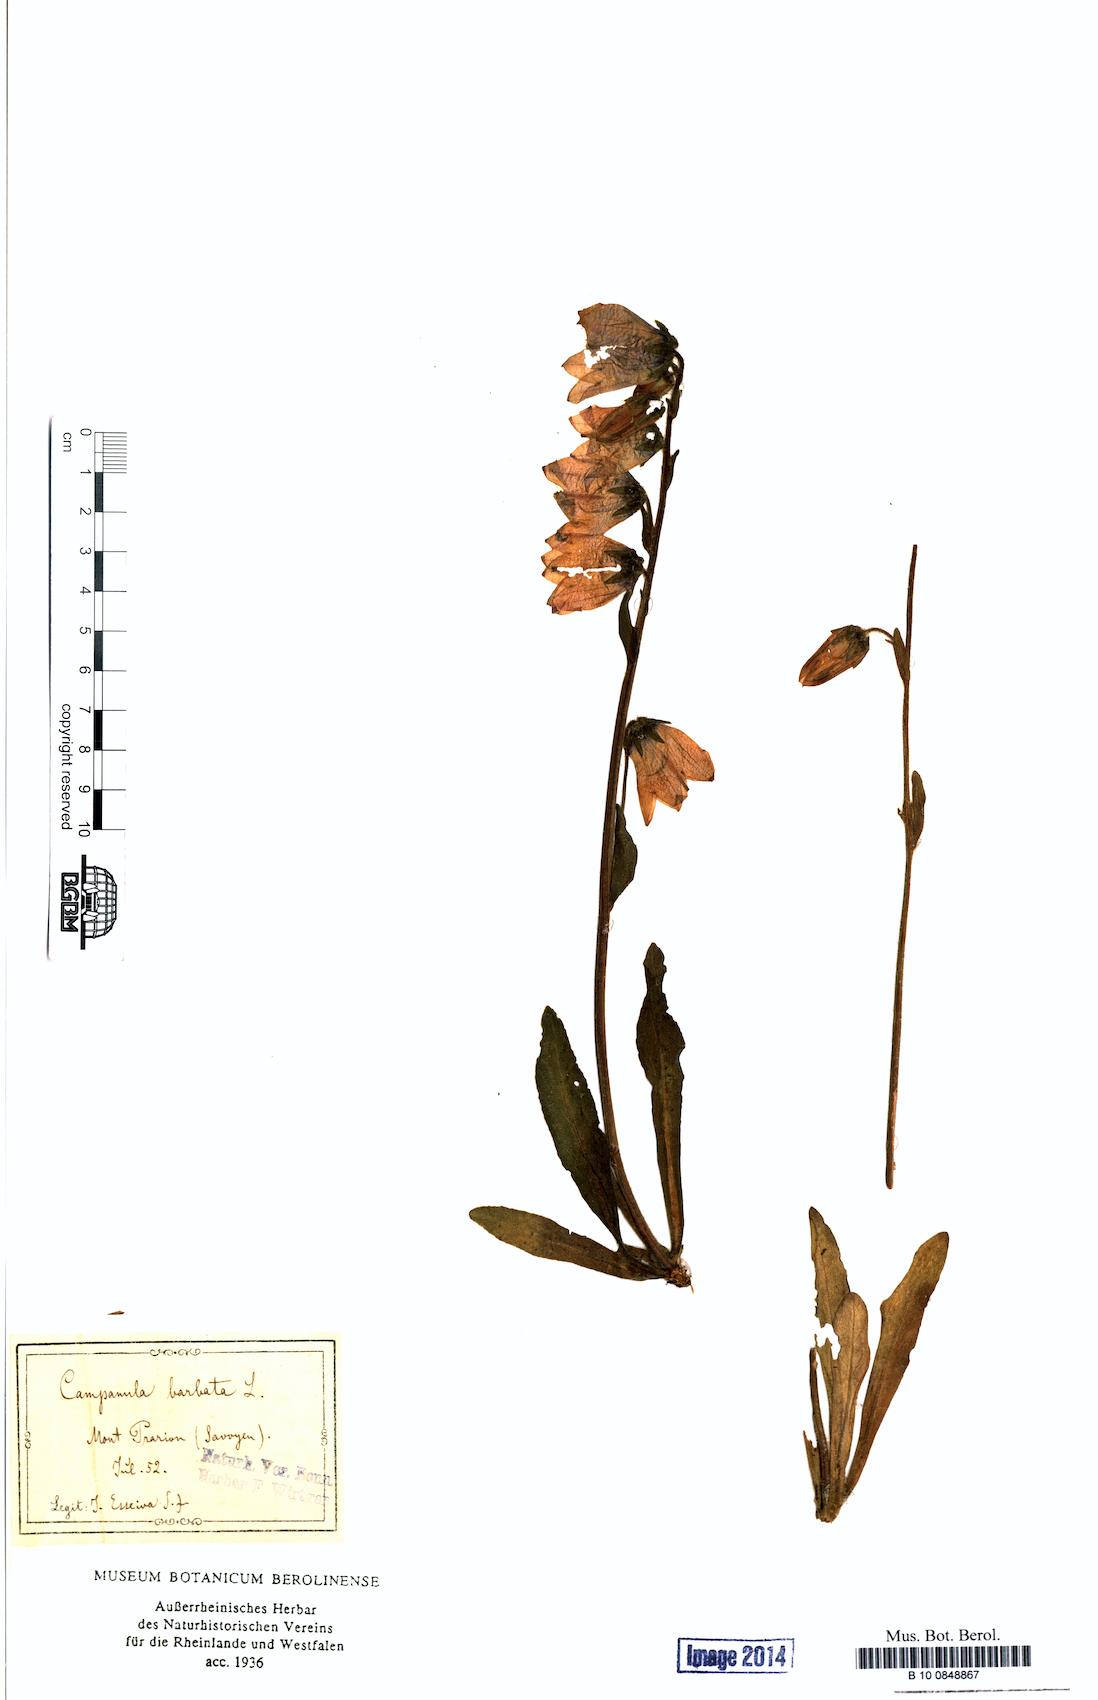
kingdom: Plantae
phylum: Tracheophyta
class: Magnoliopsida
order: Asterales
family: Campanulaceae
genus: Campanula
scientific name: Campanula barbata
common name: Bearded bellflower
